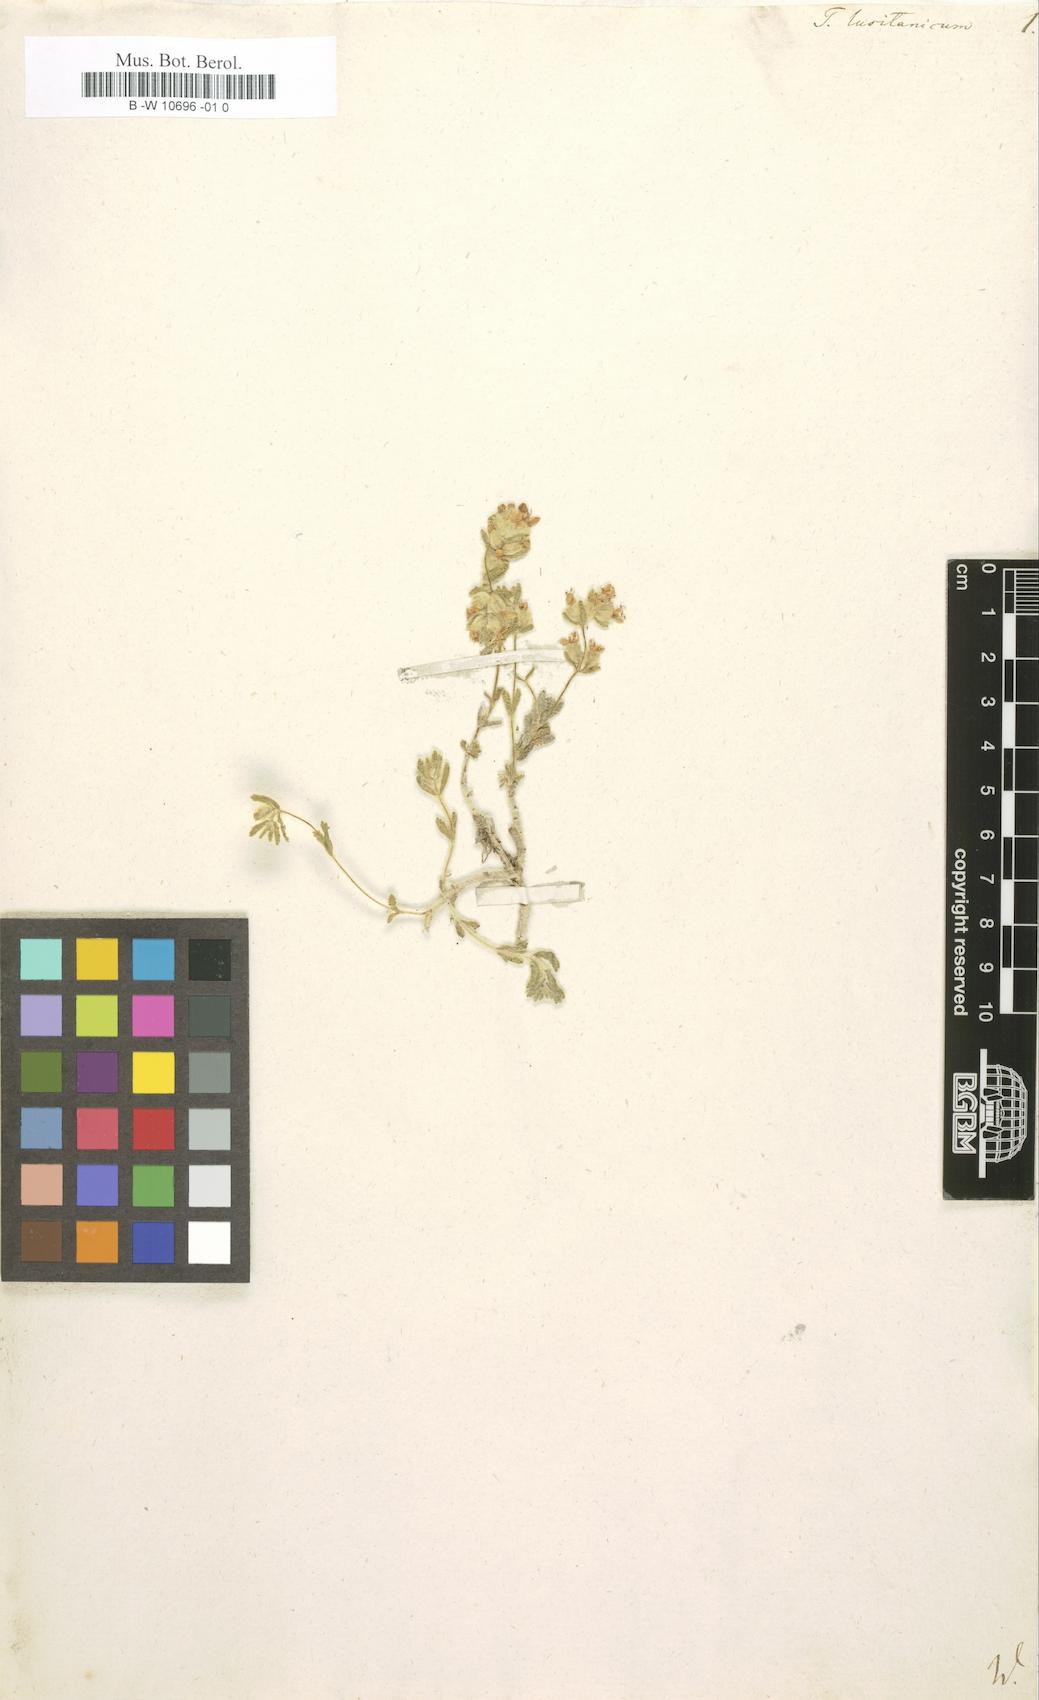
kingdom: Plantae
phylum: Tracheophyta
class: Magnoliopsida
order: Lamiales
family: Lamiaceae
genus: Teucrium
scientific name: Teucrium lusitanicum
